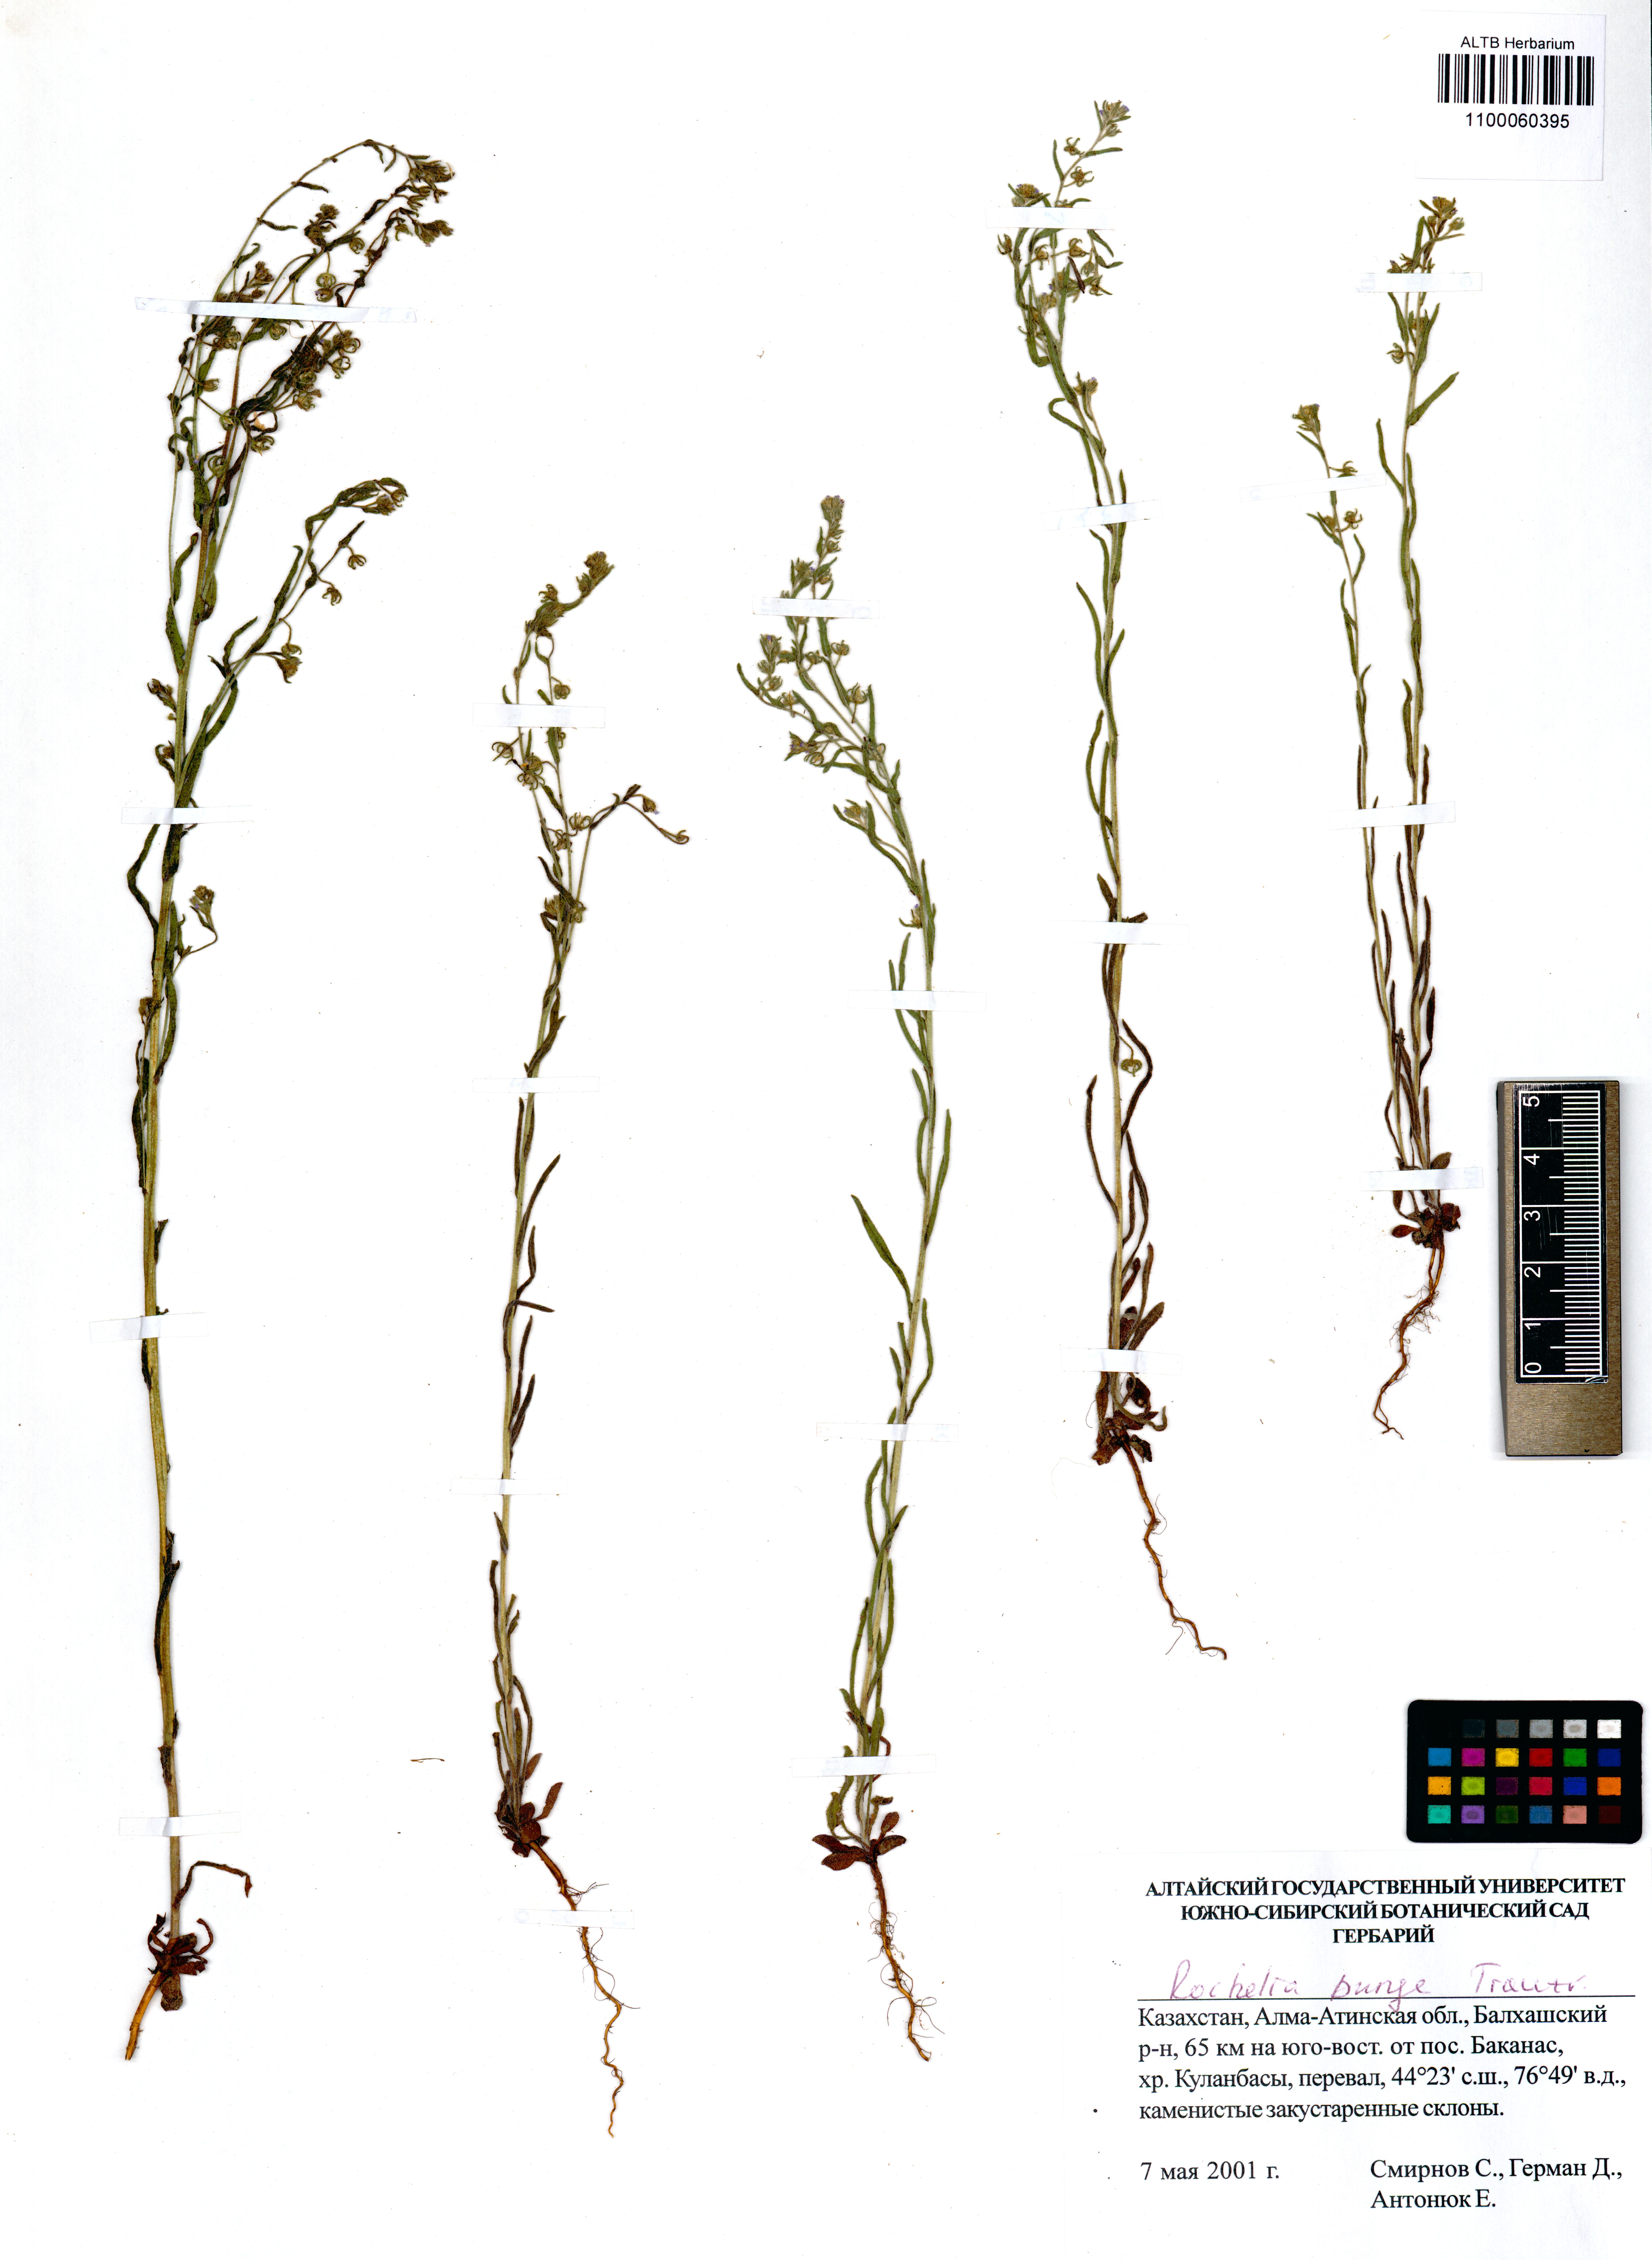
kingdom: Plantae
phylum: Tracheophyta
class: Magnoliopsida
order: Boraginales
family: Boraginaceae
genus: Rochelia
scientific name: Rochelia bungei
